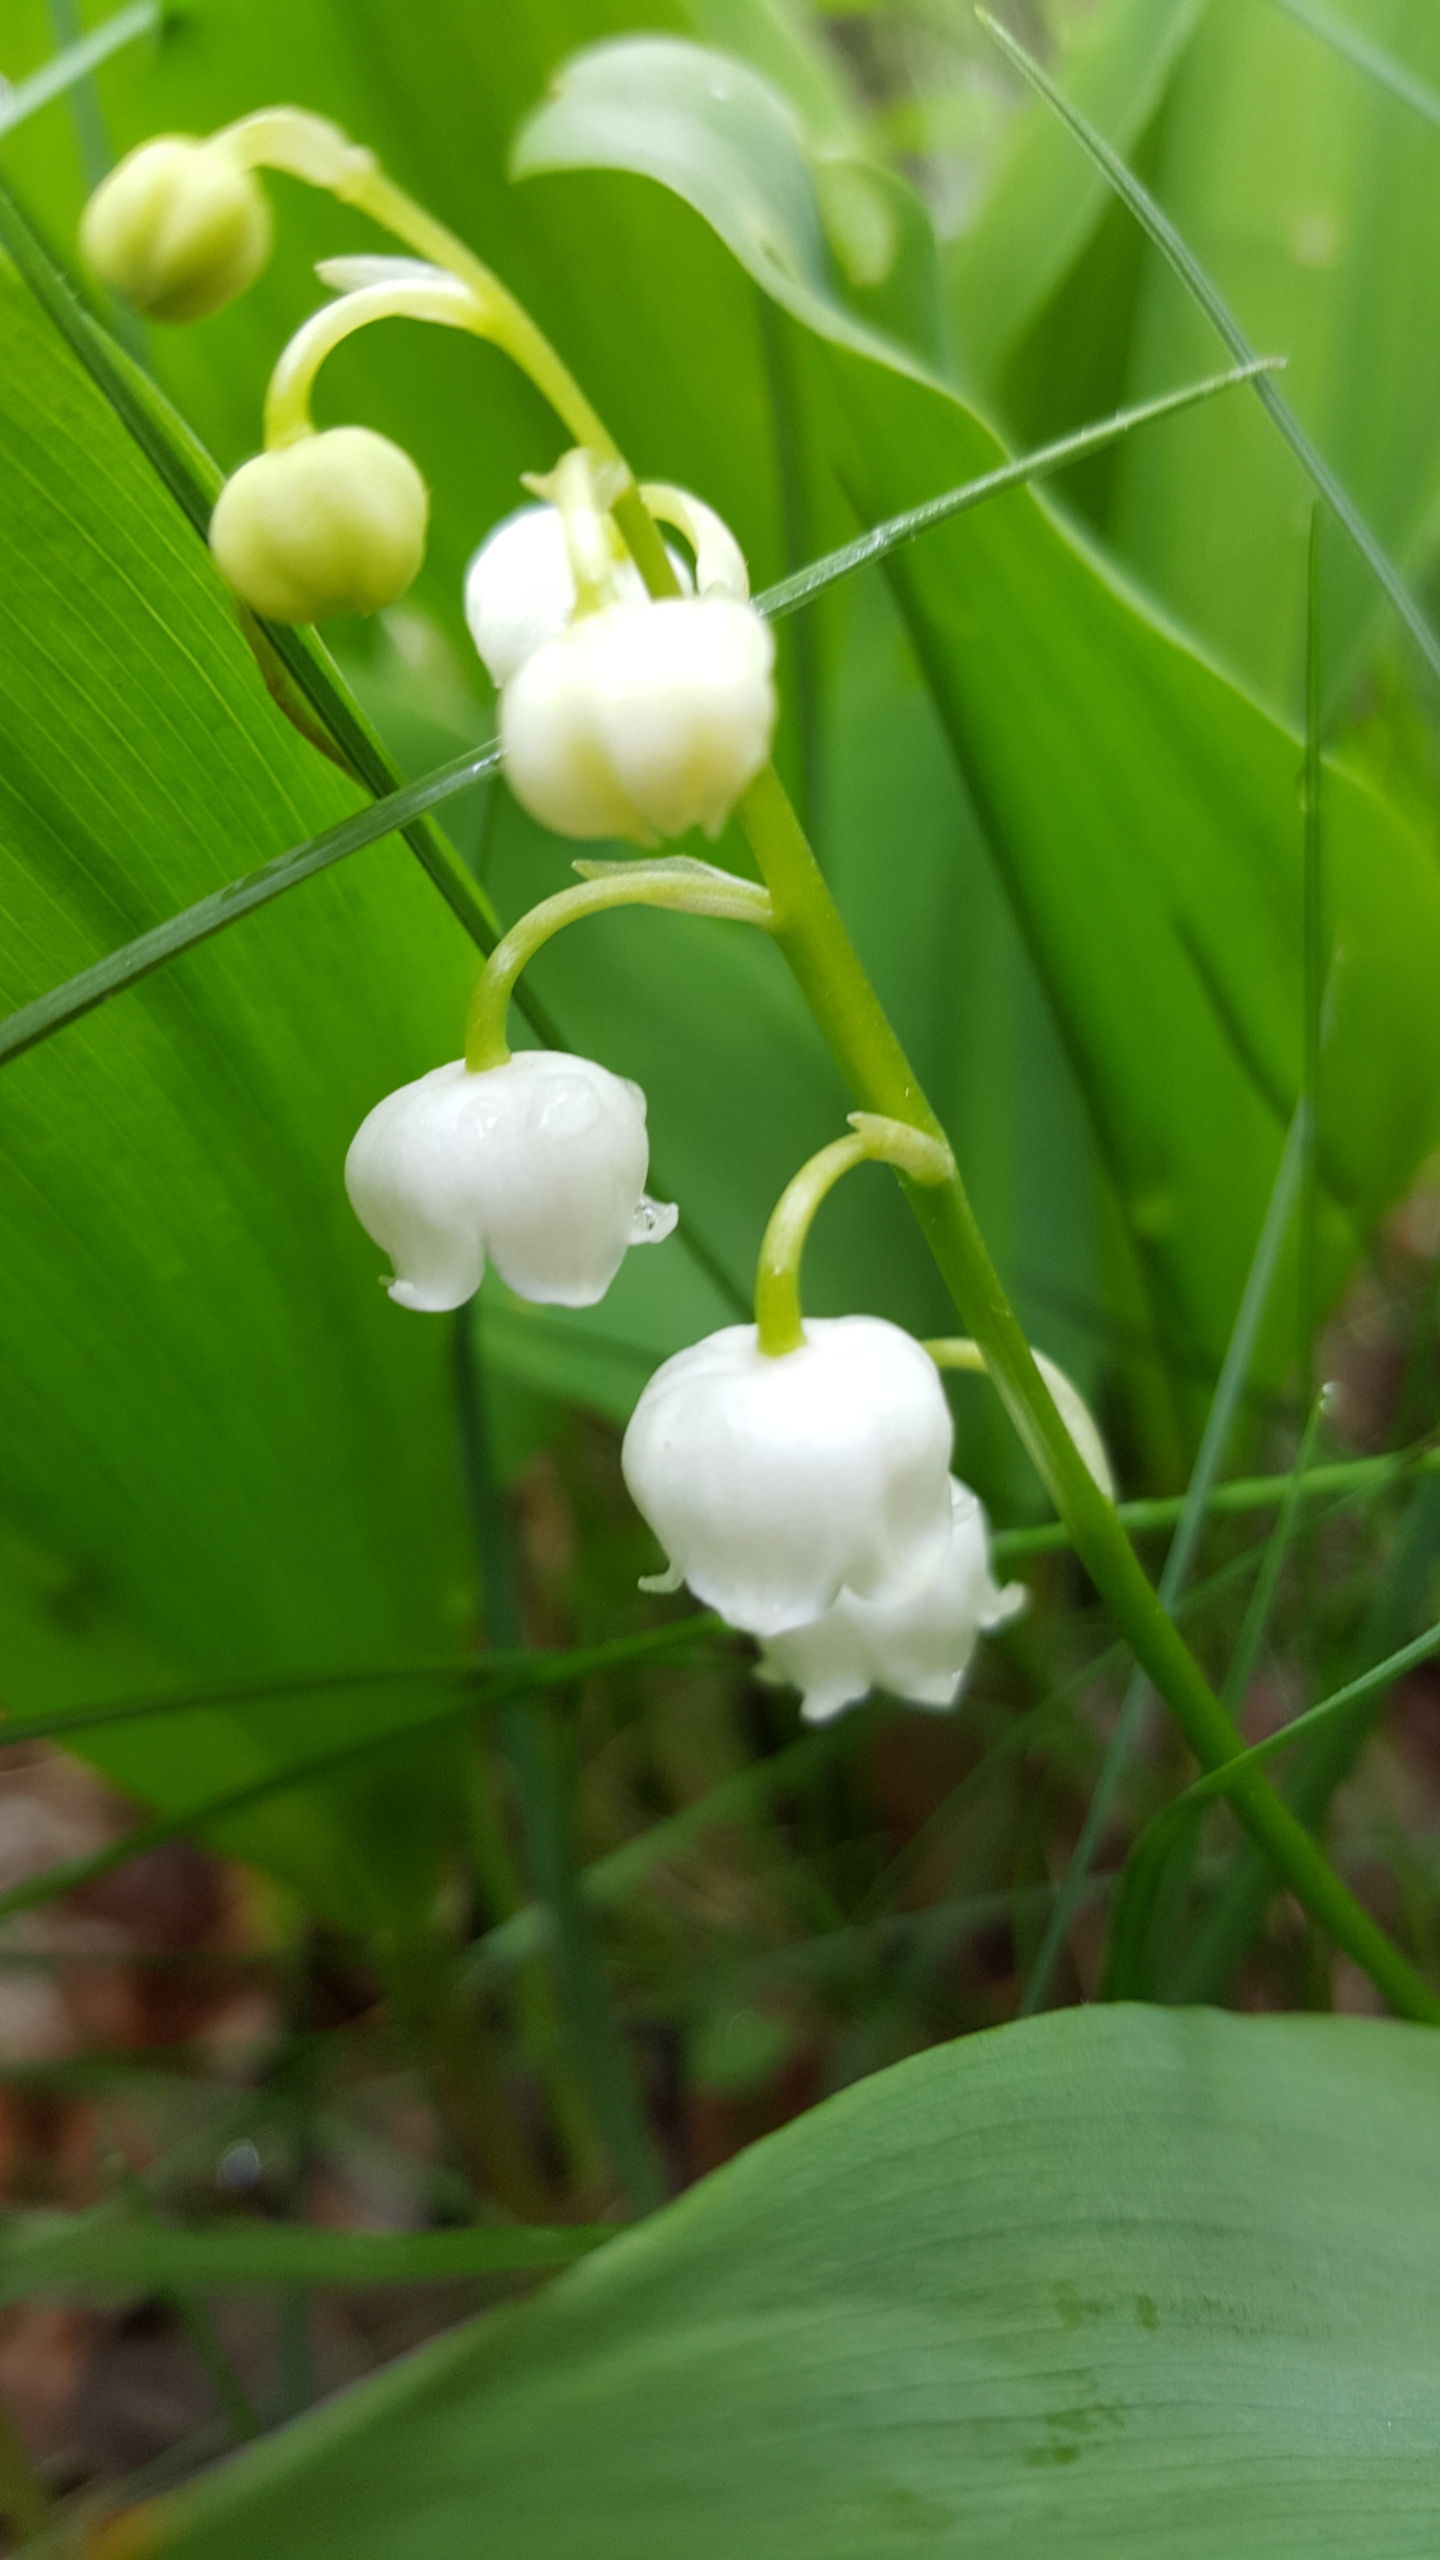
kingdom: Plantae
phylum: Tracheophyta
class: Liliopsida
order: Asparagales
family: Asparagaceae
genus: Convallaria
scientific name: Convallaria majalis
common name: Liljekonval
